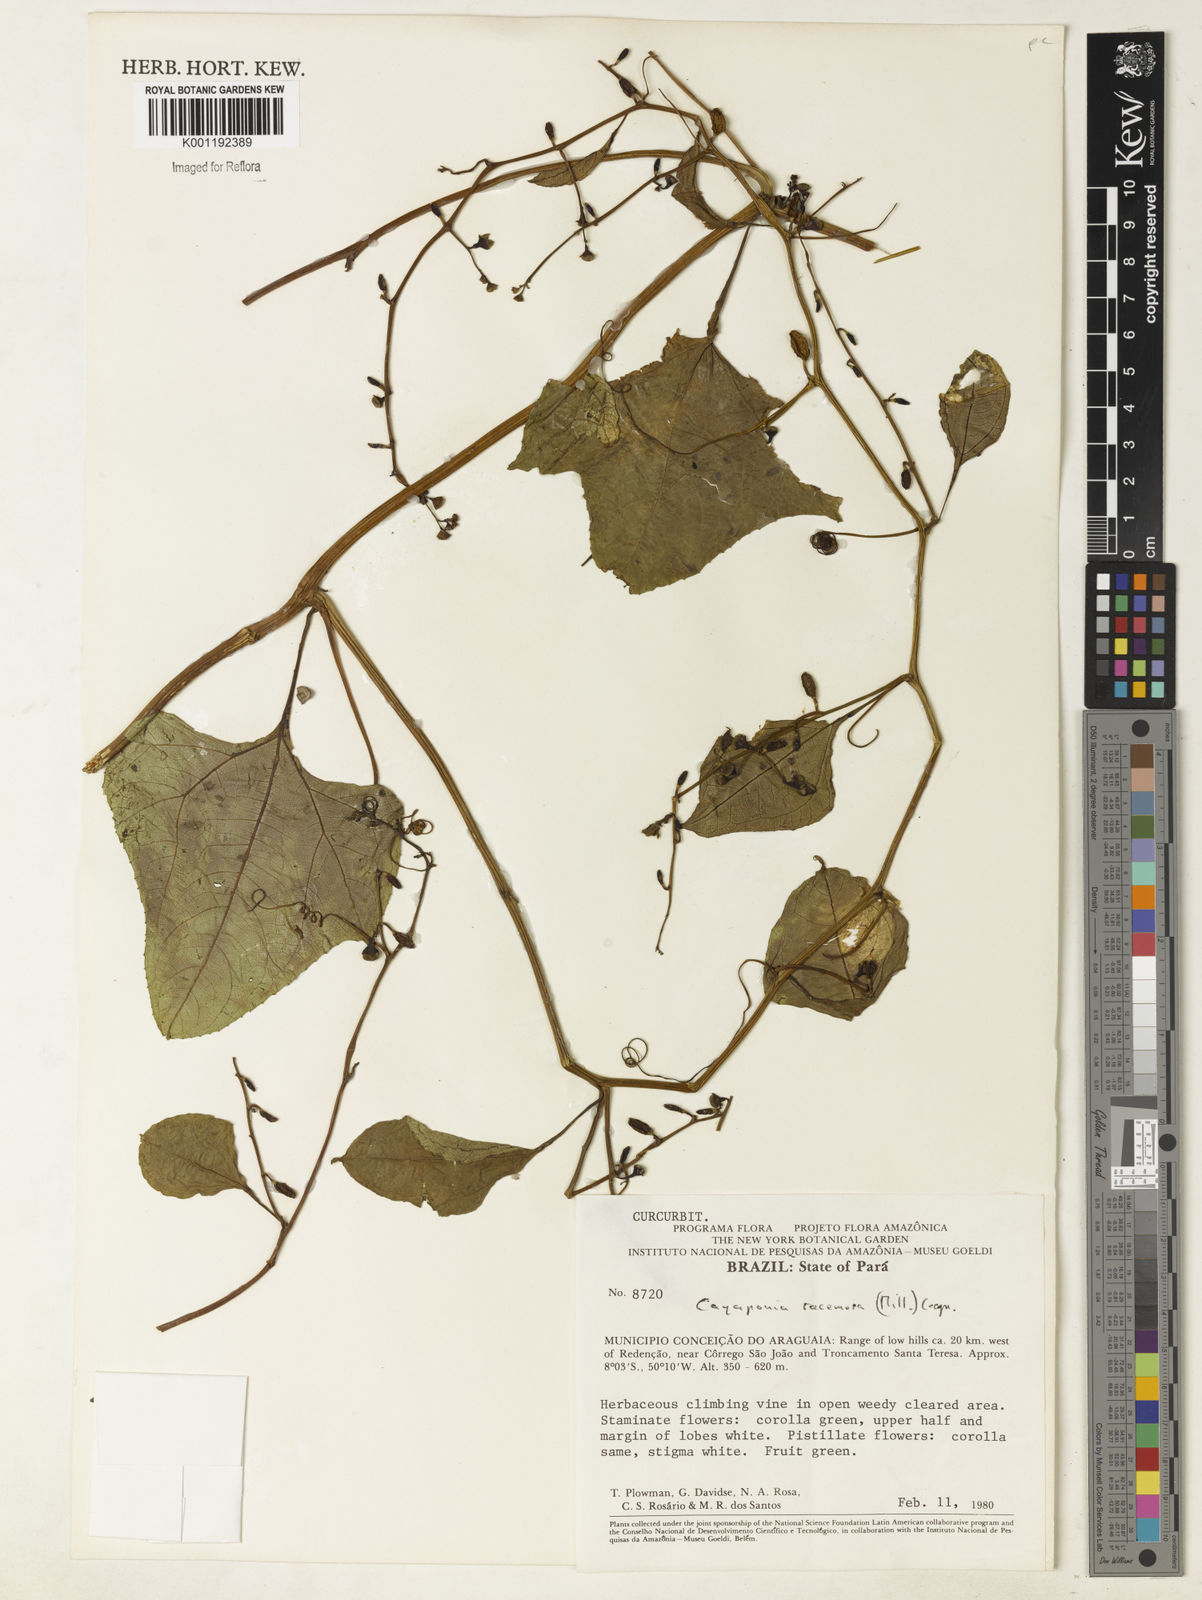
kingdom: Plantae
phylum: Tracheophyta
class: Magnoliopsida
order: Cucurbitales
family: Cucurbitaceae
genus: Cayaponia
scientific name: Cayaponia racemosa
